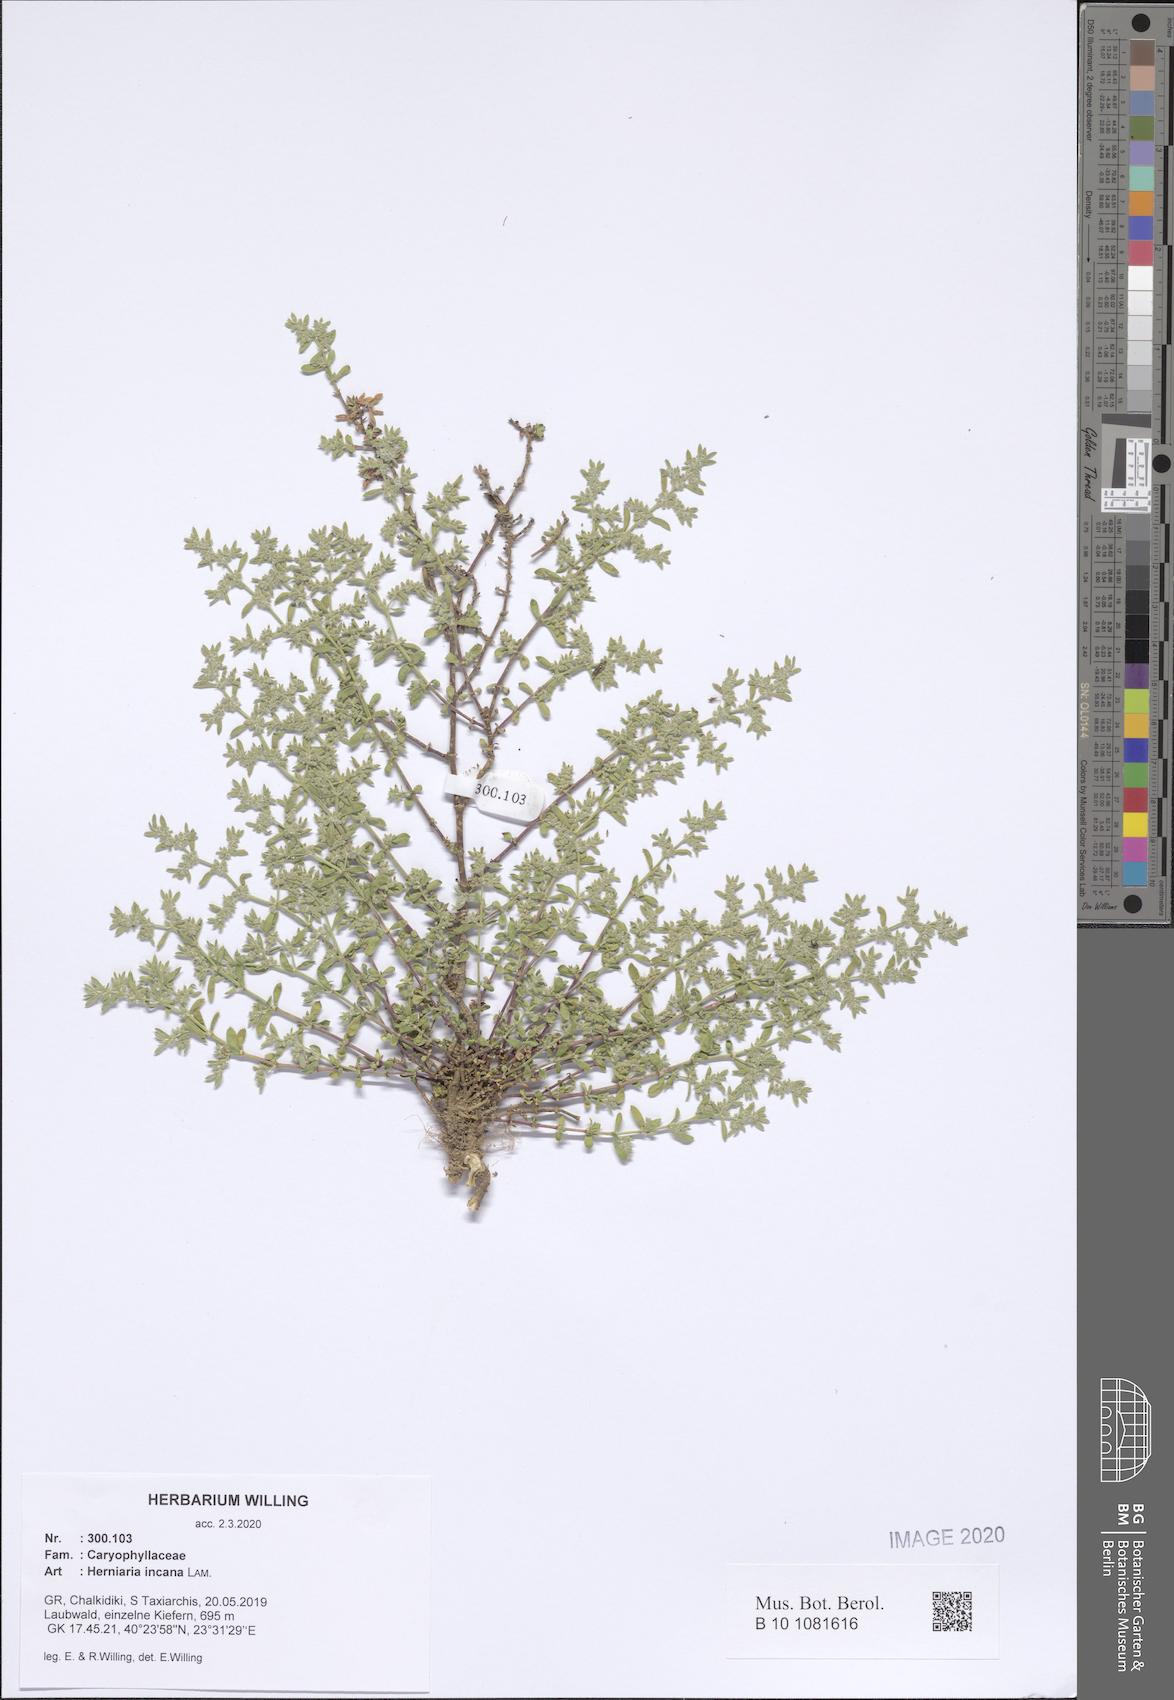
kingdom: Plantae
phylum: Tracheophyta
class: Magnoliopsida
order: Caryophyllales
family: Caryophyllaceae
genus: Herniaria
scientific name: Herniaria incana
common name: Gray rupturewort
